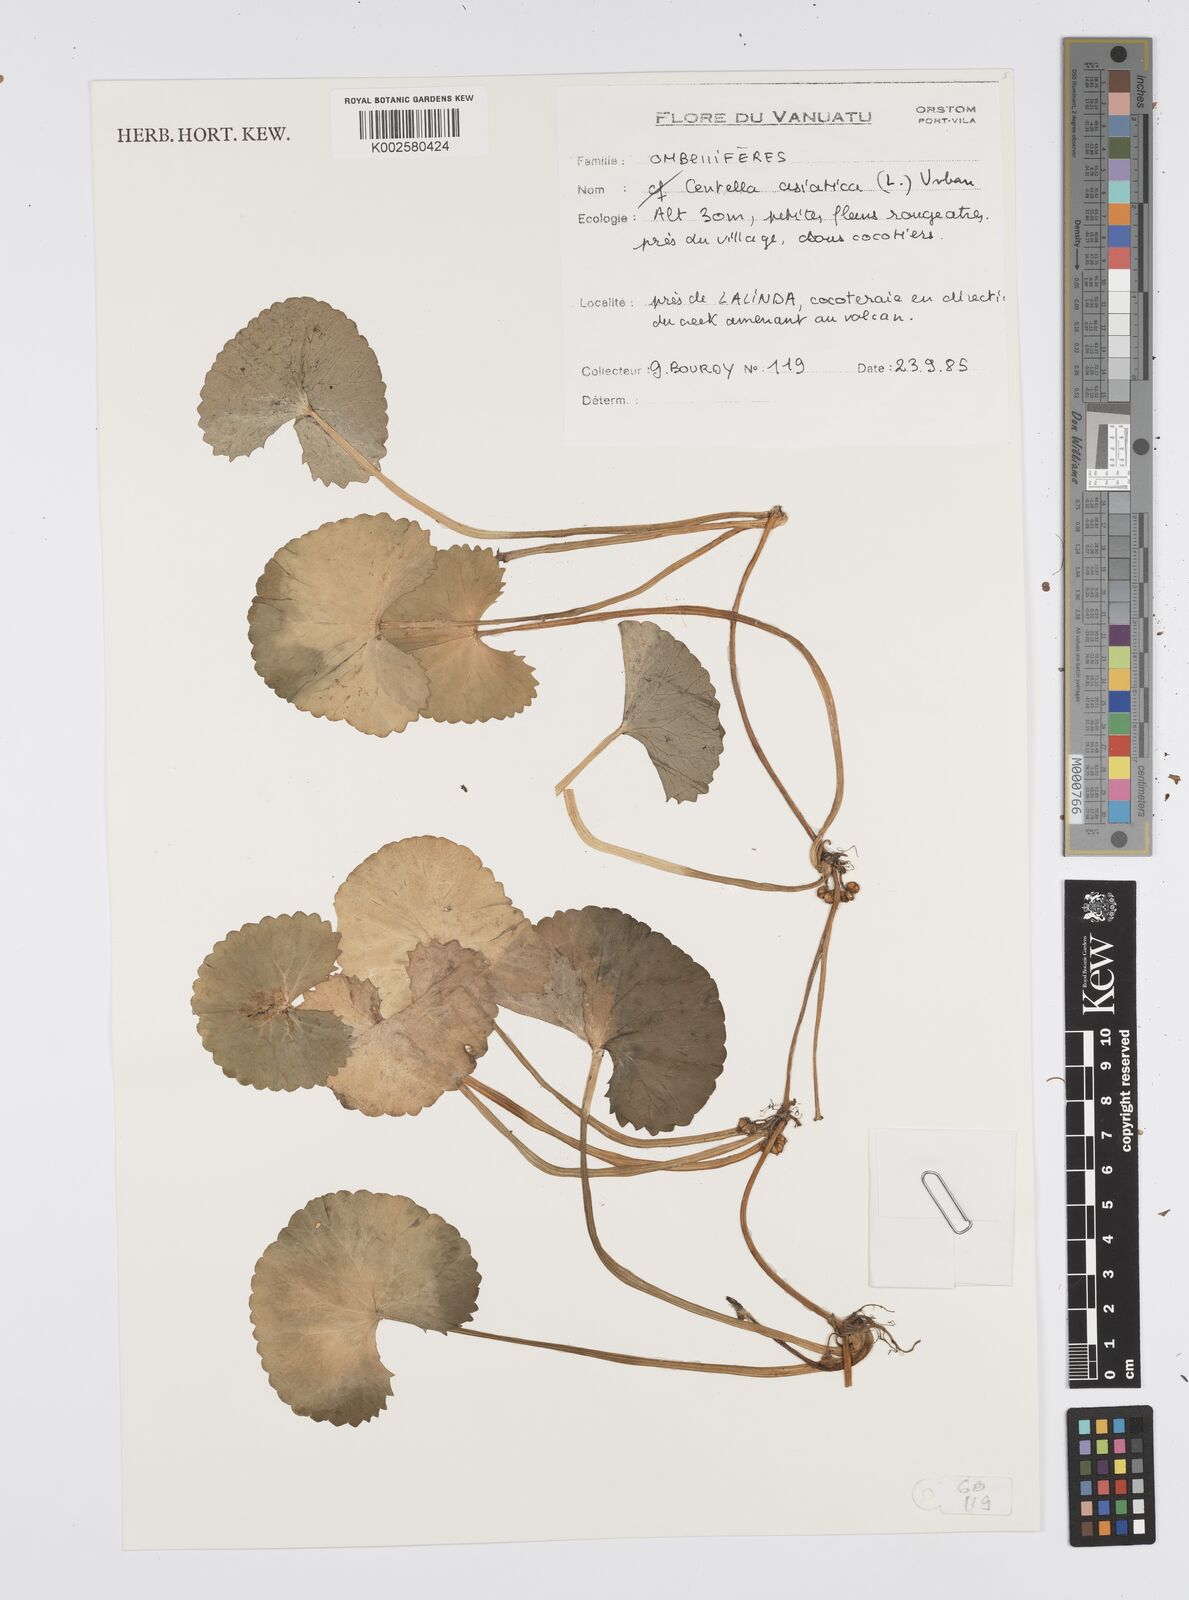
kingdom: Plantae
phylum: Tracheophyta
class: Magnoliopsida
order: Apiales
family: Apiaceae
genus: Centella
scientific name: Centella asiatica
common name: Spadeleaf
